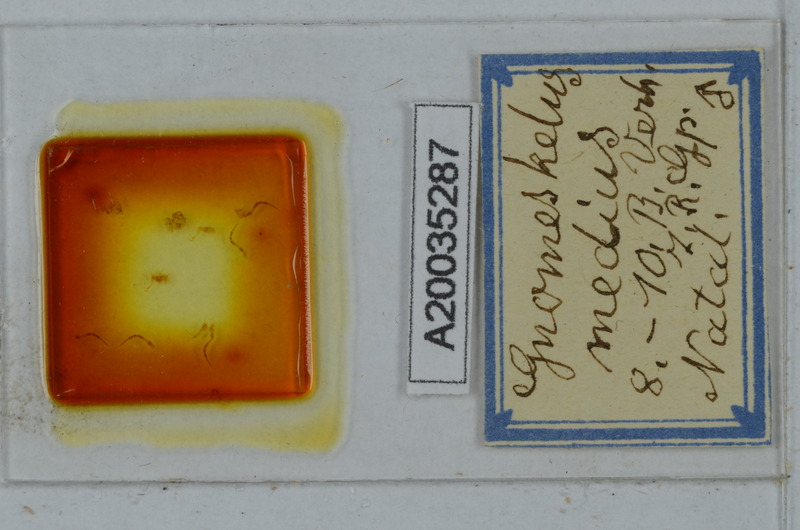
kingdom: Animalia
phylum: Arthropoda
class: Diplopoda
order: Polydesmida
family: Dalodesmidae
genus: Gnomeskelus
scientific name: Gnomeskelus medius
